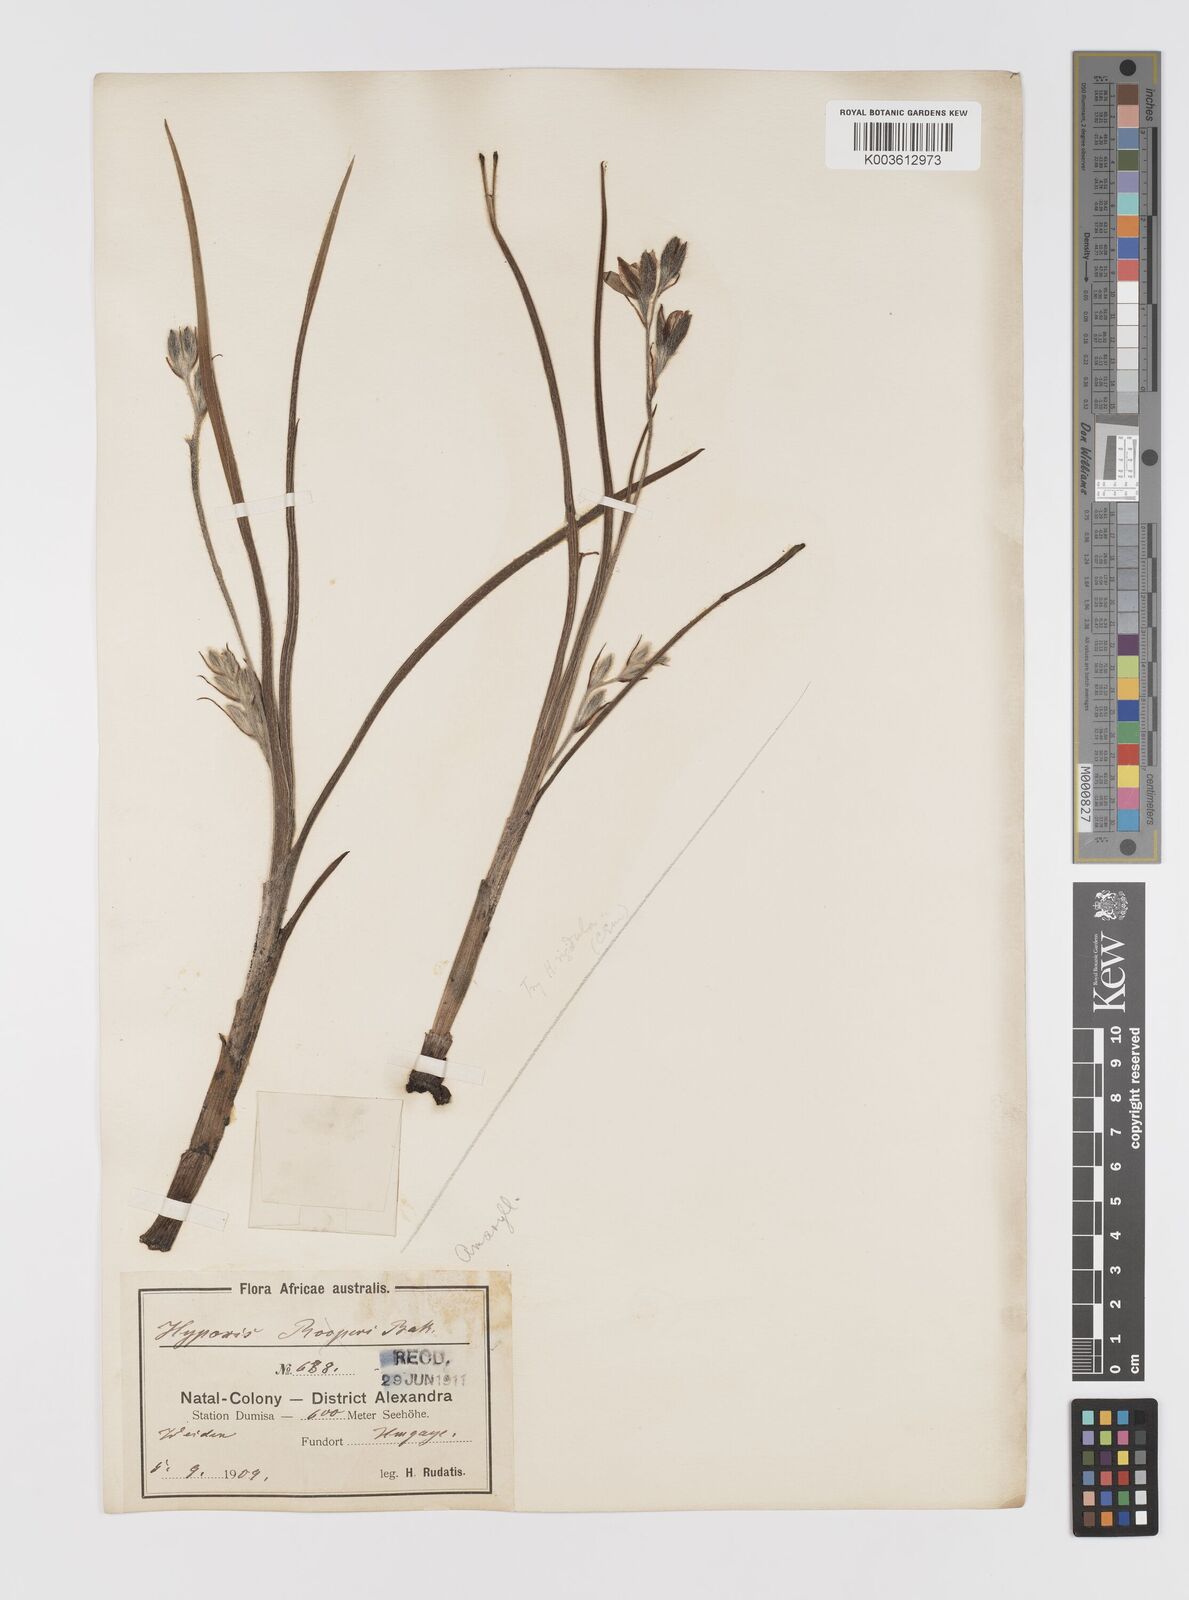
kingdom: Plantae
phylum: Tracheophyta
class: Liliopsida
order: Asparagales
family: Hypoxidaceae
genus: Hypoxis
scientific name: Hypoxis rigidula
